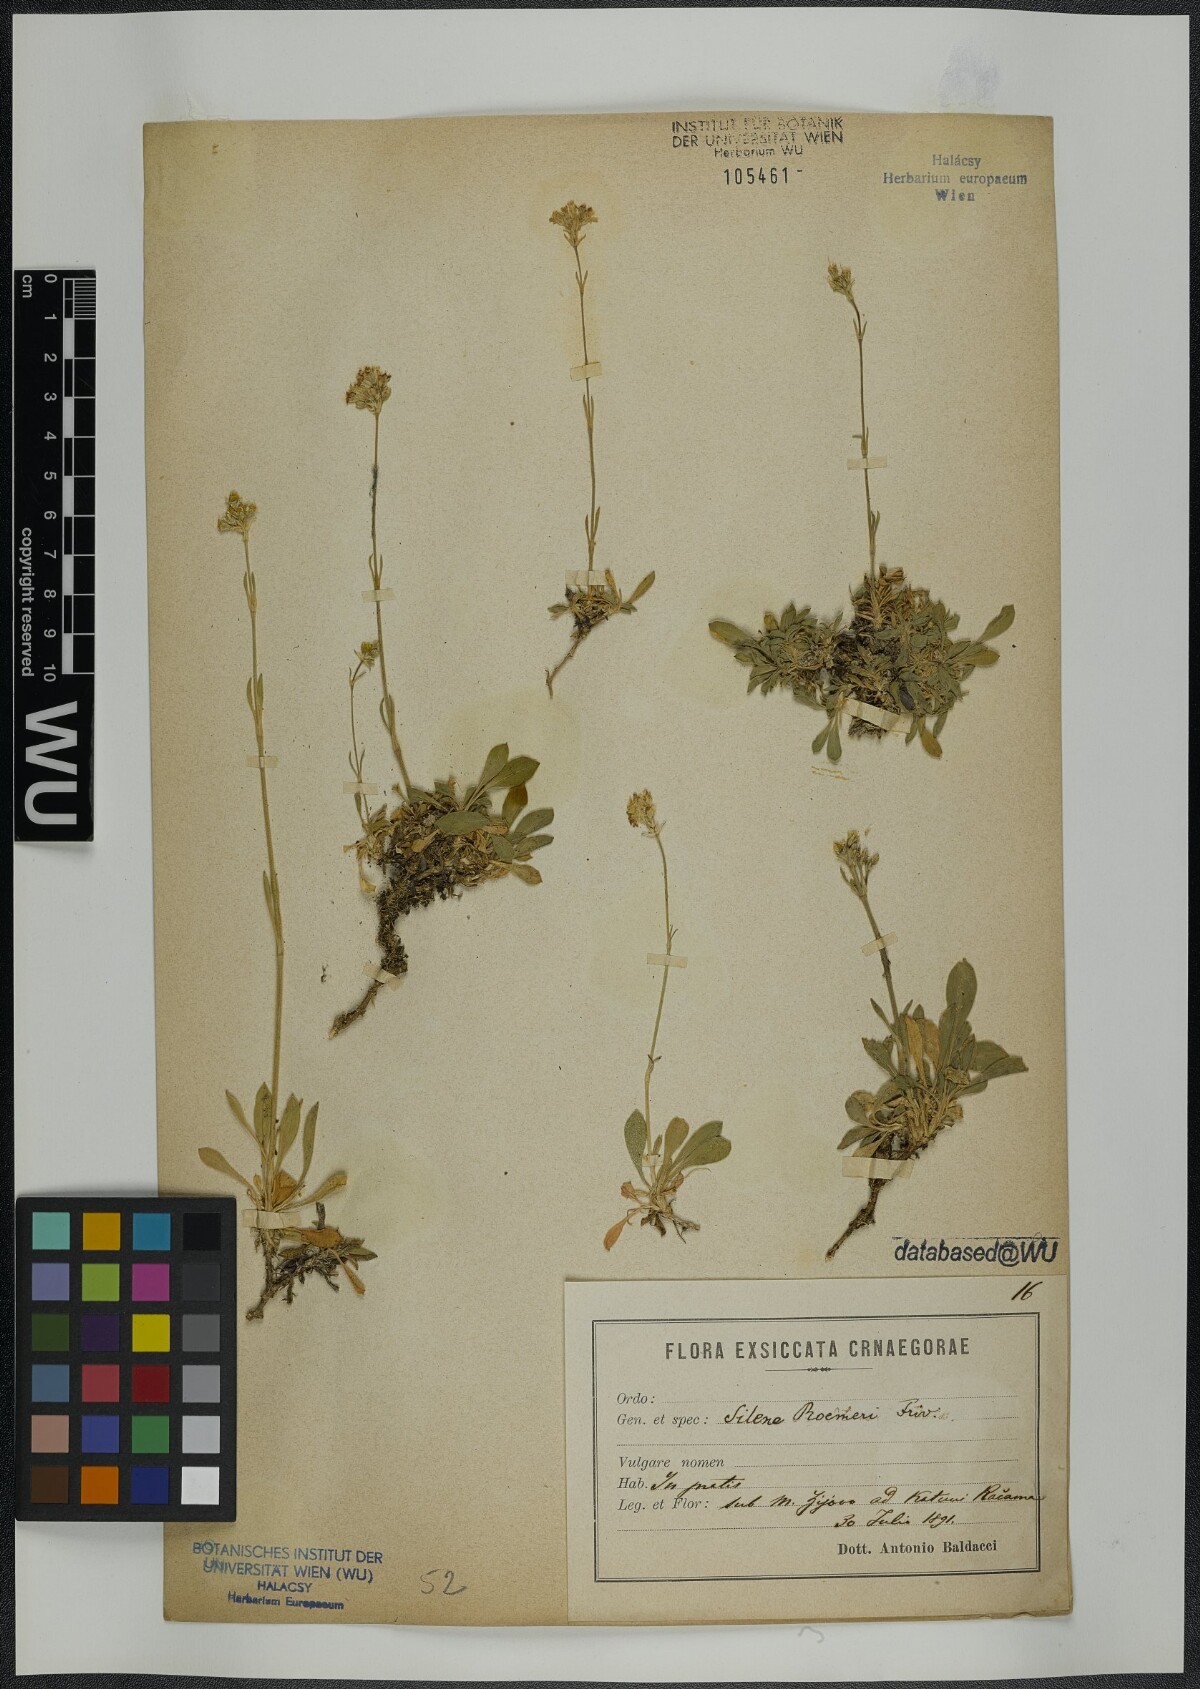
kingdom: Plantae
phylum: Tracheophyta
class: Magnoliopsida
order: Caryophyllales
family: Caryophyllaceae
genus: Silene
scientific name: Silene roemeri
